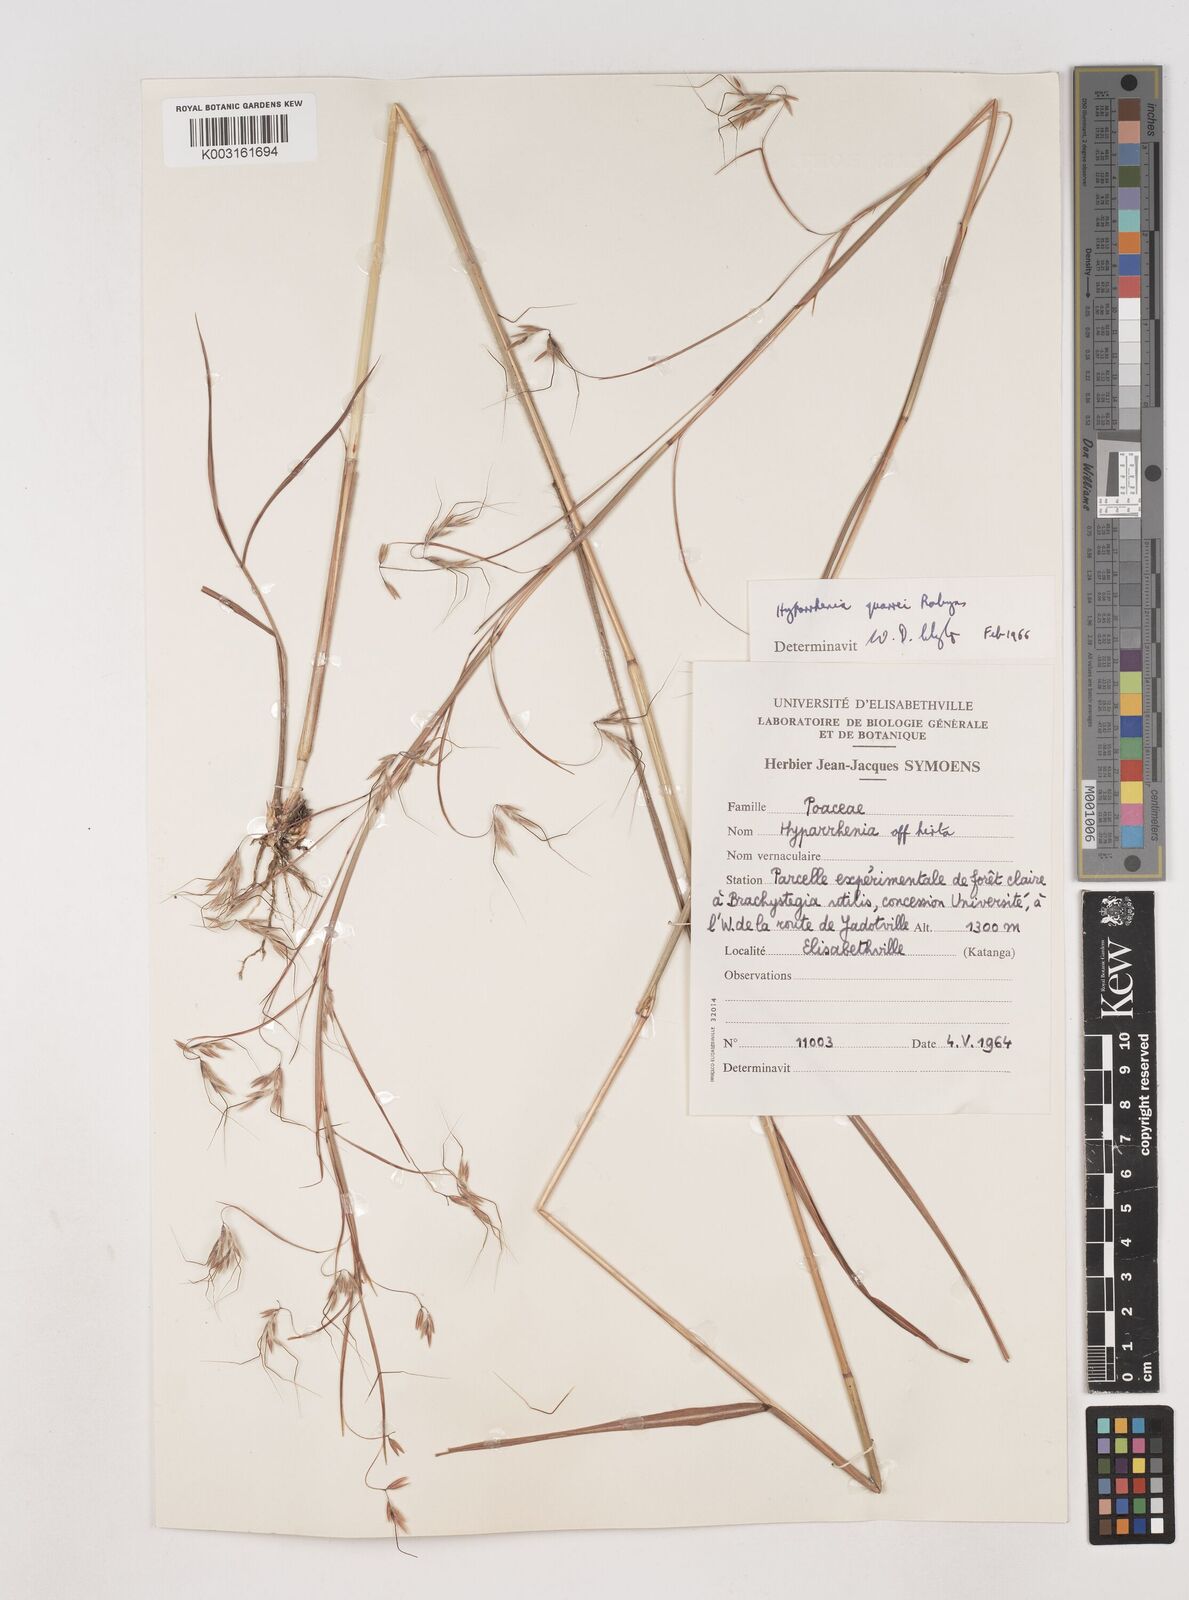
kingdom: Plantae
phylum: Tracheophyta
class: Liliopsida
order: Poales
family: Poaceae
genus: Hyparrhenia
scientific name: Hyparrhenia quarrei
